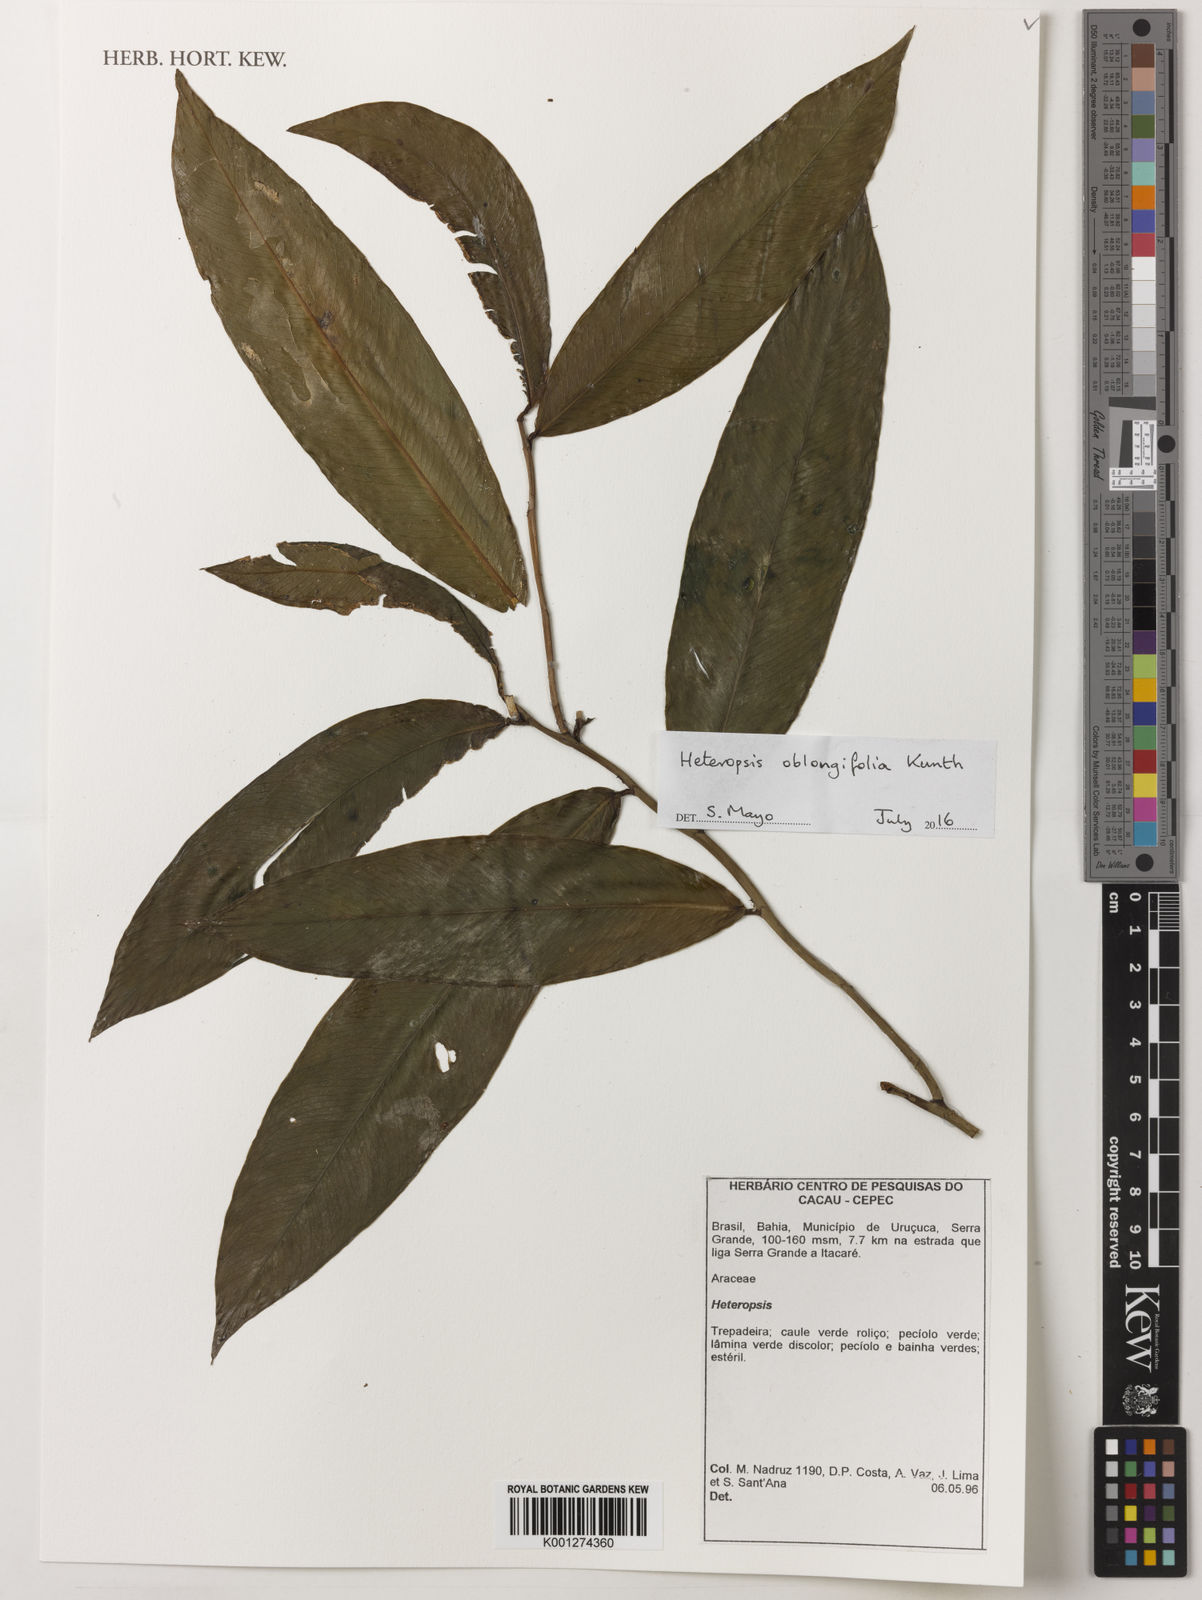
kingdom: Plantae
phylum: Tracheophyta
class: Liliopsida
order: Alismatales
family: Araceae
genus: Heteropsis
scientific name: Heteropsis oblongifolia
